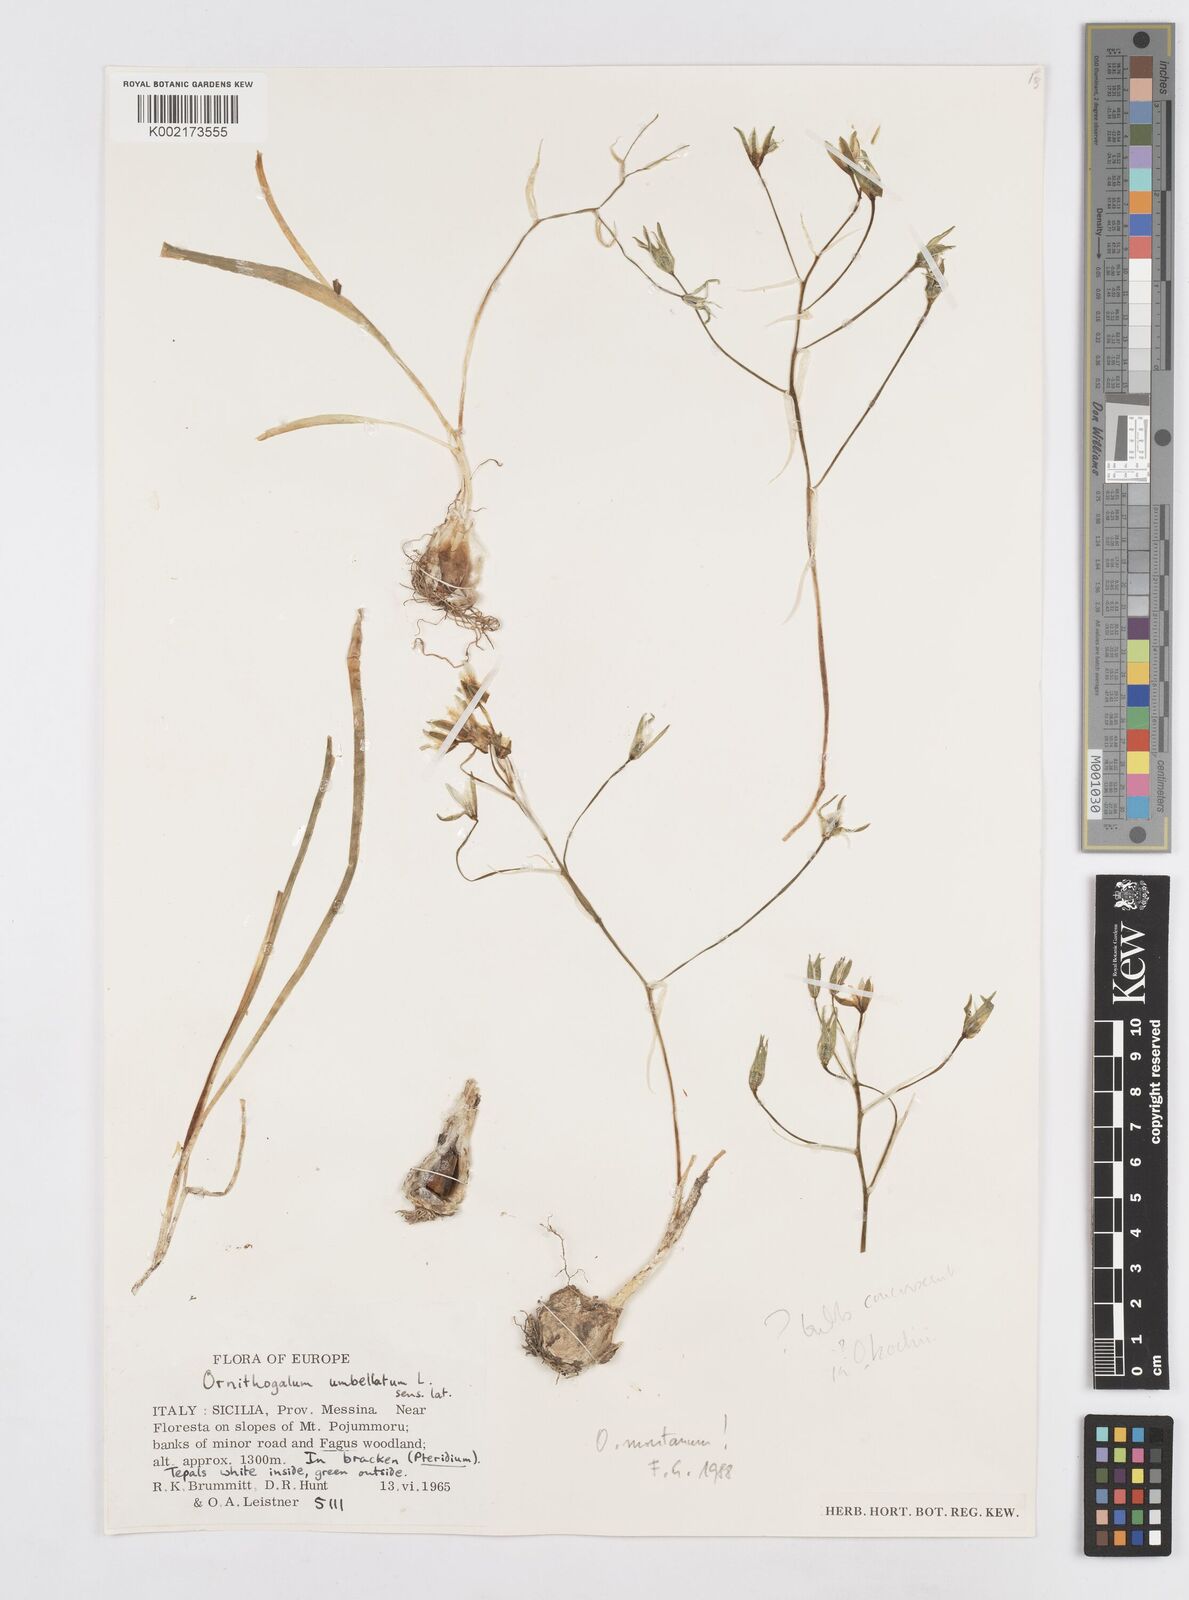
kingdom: Plantae
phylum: Tracheophyta
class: Liliopsida
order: Asparagales
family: Asparagaceae
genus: Ornithogalum
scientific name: Ornithogalum gussonei
